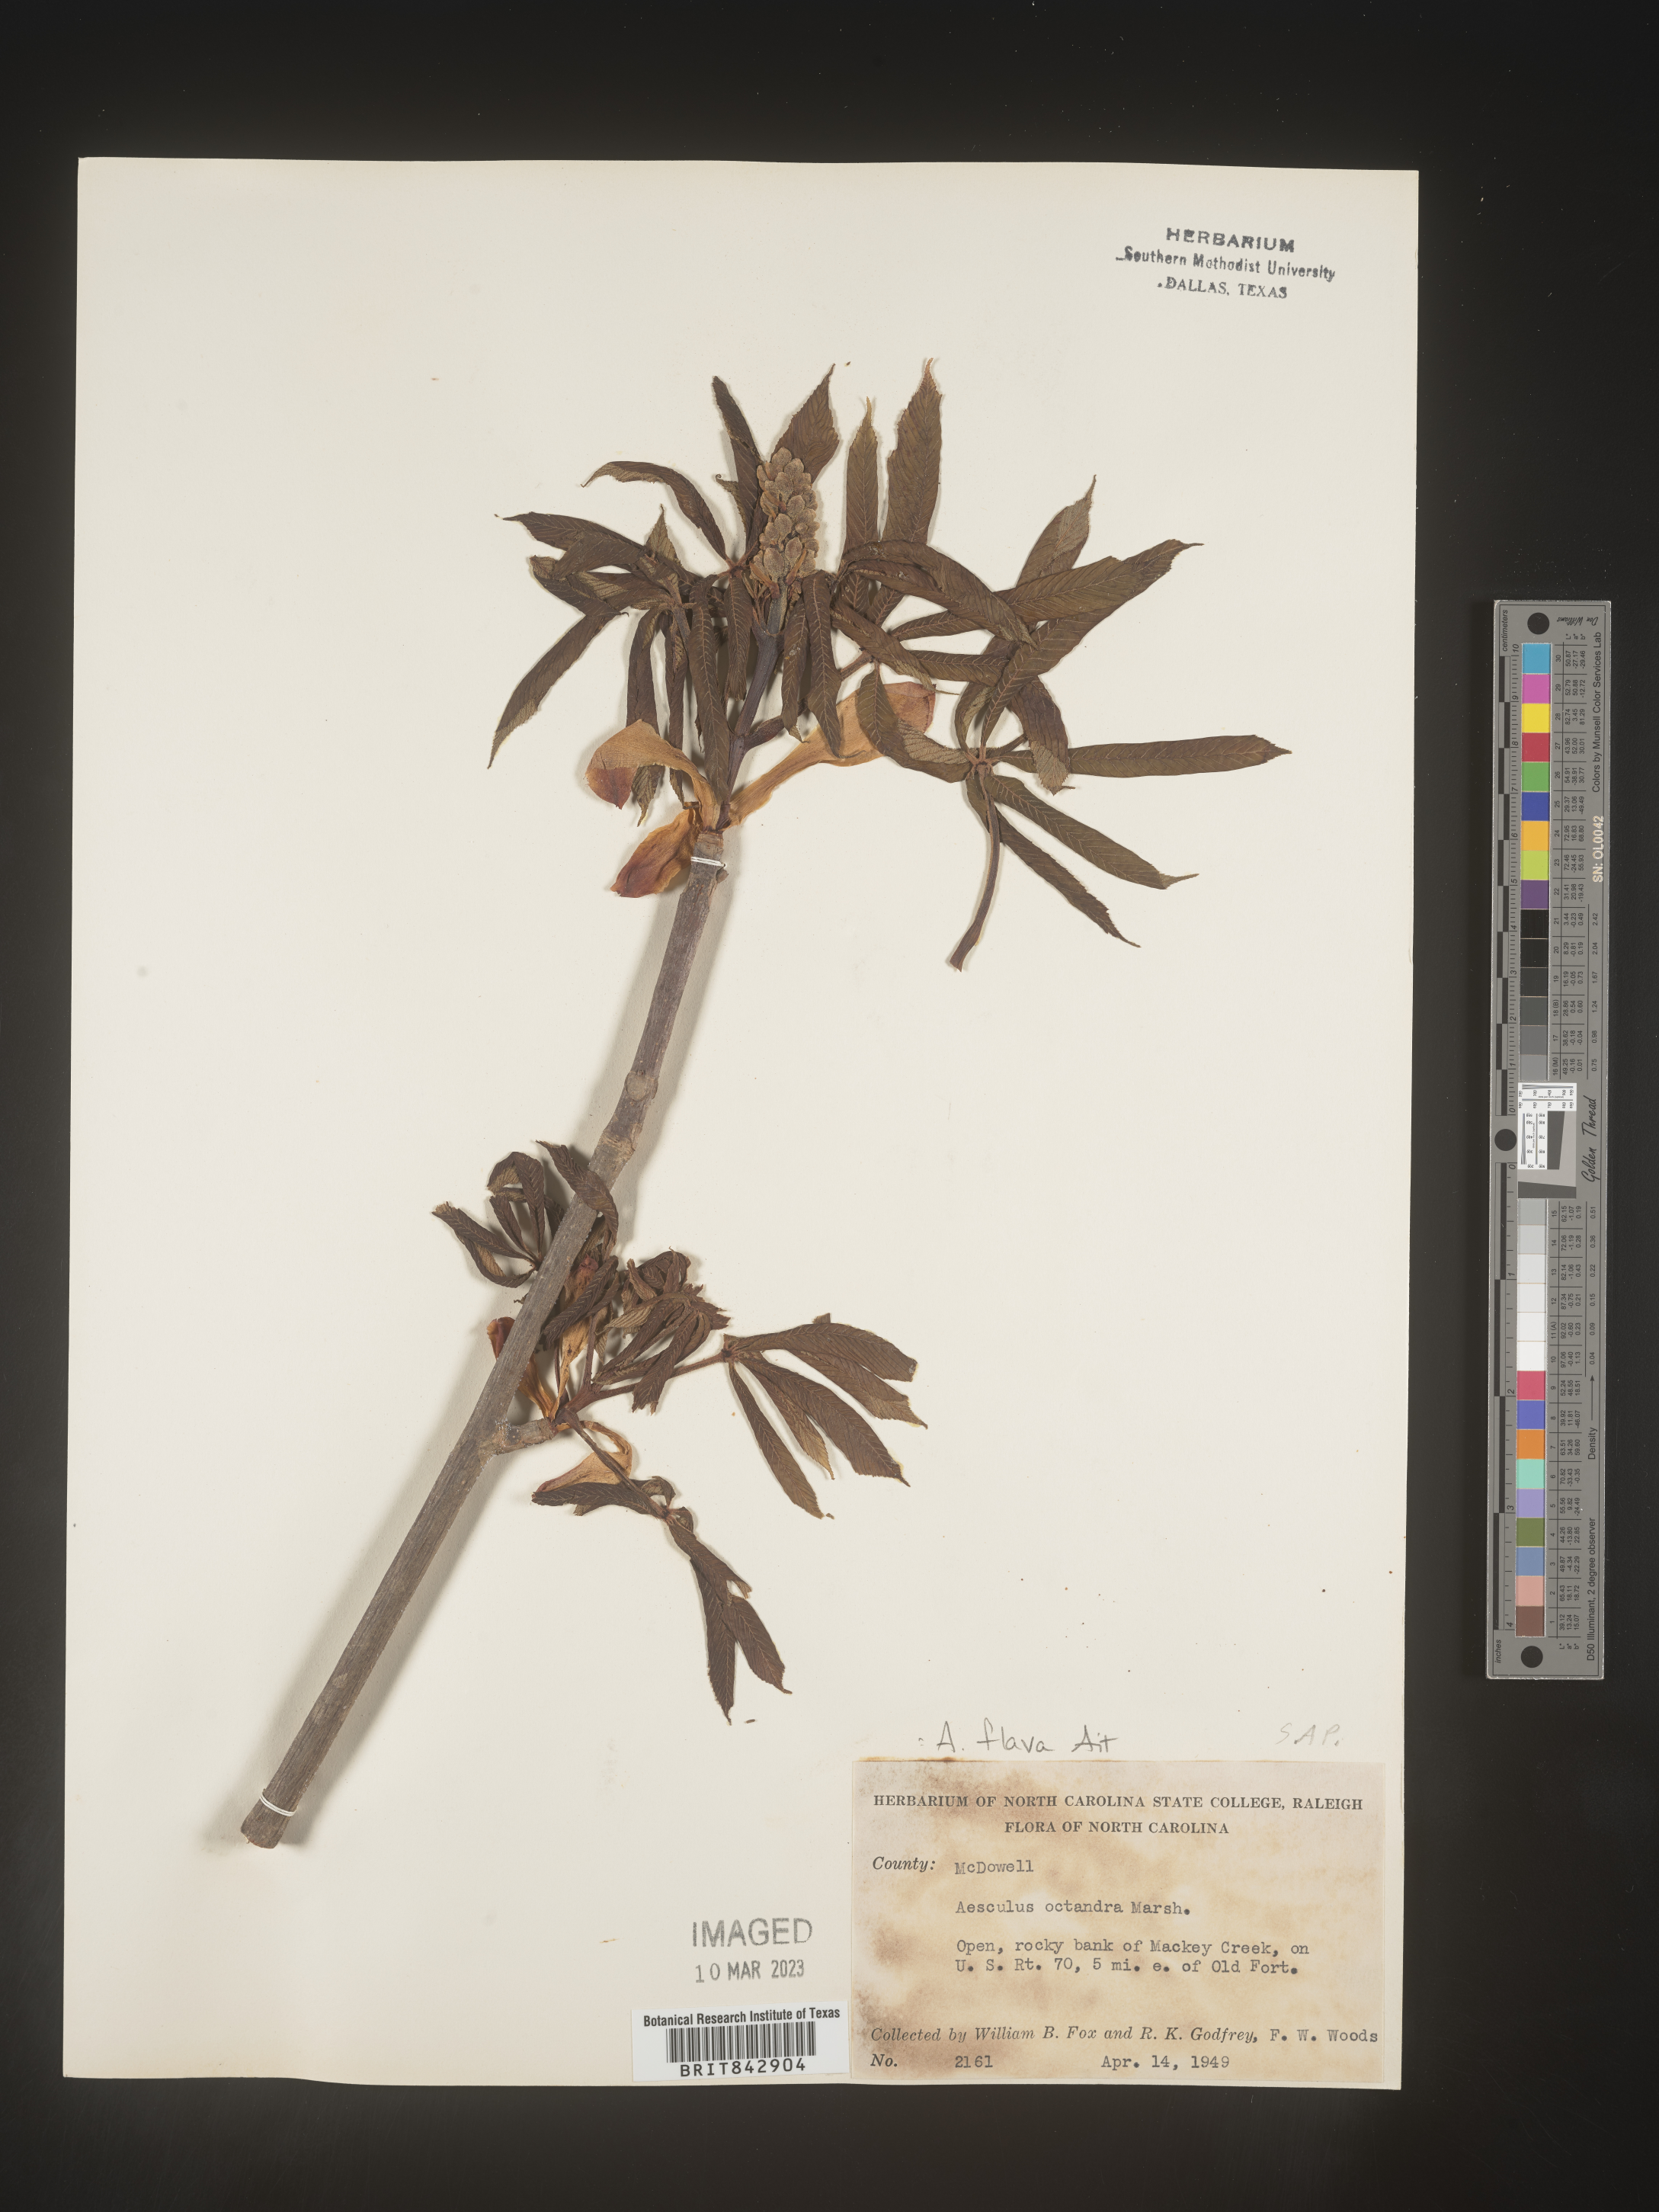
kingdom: Plantae
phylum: Tracheophyta
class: Magnoliopsida
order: Sapindales
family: Sapindaceae
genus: Aesculus
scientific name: Aesculus flava
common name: Yellow buckeye
